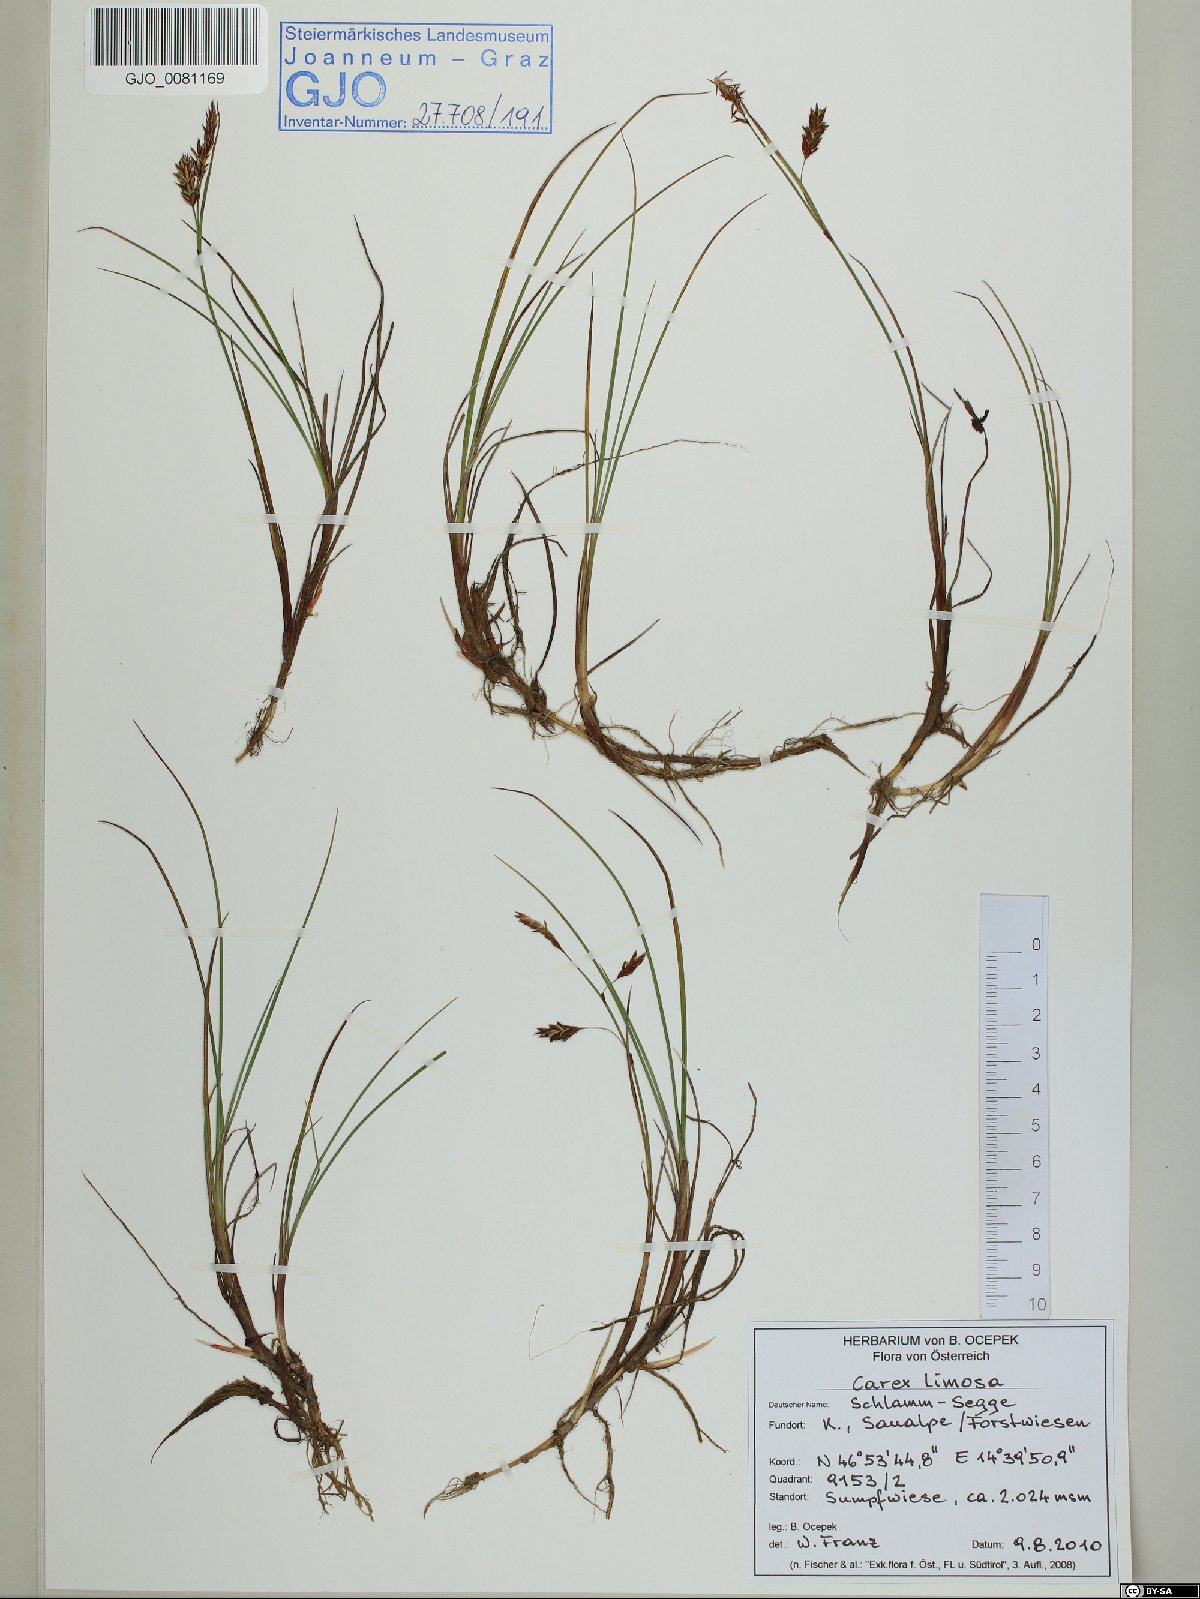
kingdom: Plantae
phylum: Tracheophyta
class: Liliopsida
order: Poales
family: Cyperaceae
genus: Carex
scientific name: Carex limosa
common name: Bog sedge
